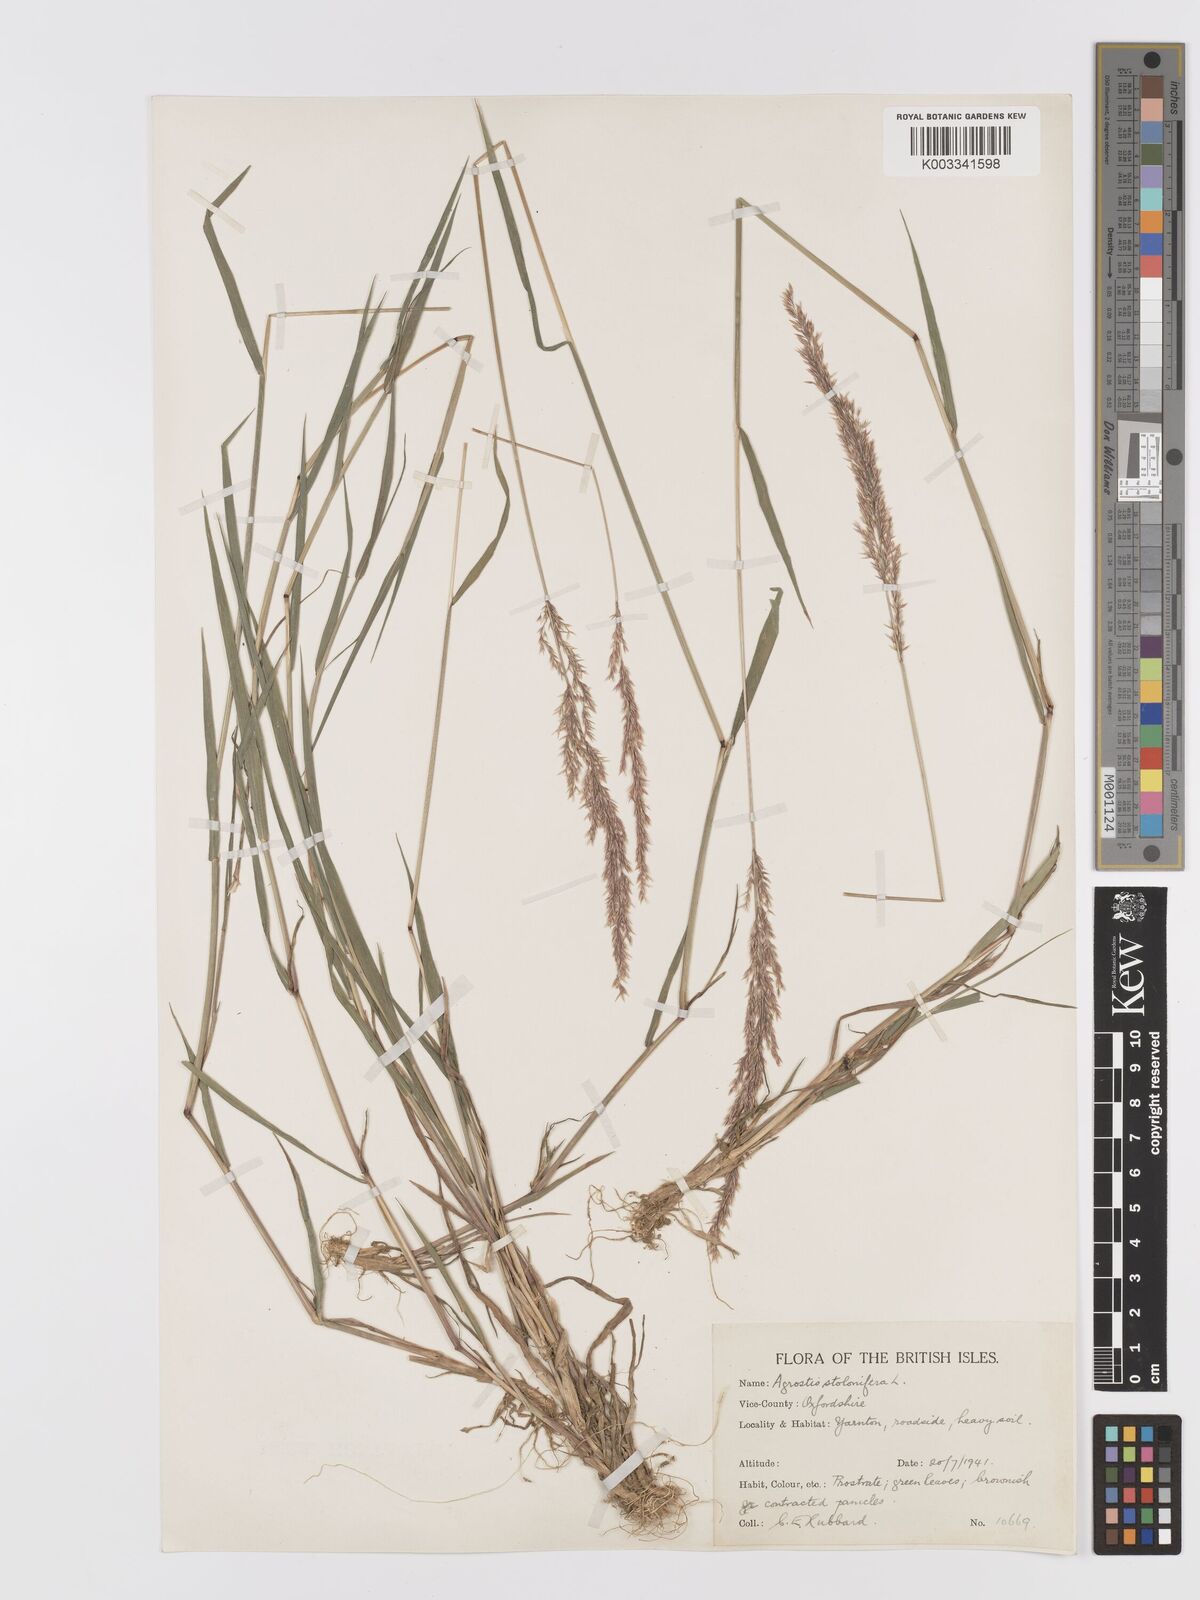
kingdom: Plantae
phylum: Tracheophyta
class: Liliopsida
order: Poales
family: Poaceae
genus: Agrostis
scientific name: Agrostis stolonifera
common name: Creeping bentgrass
